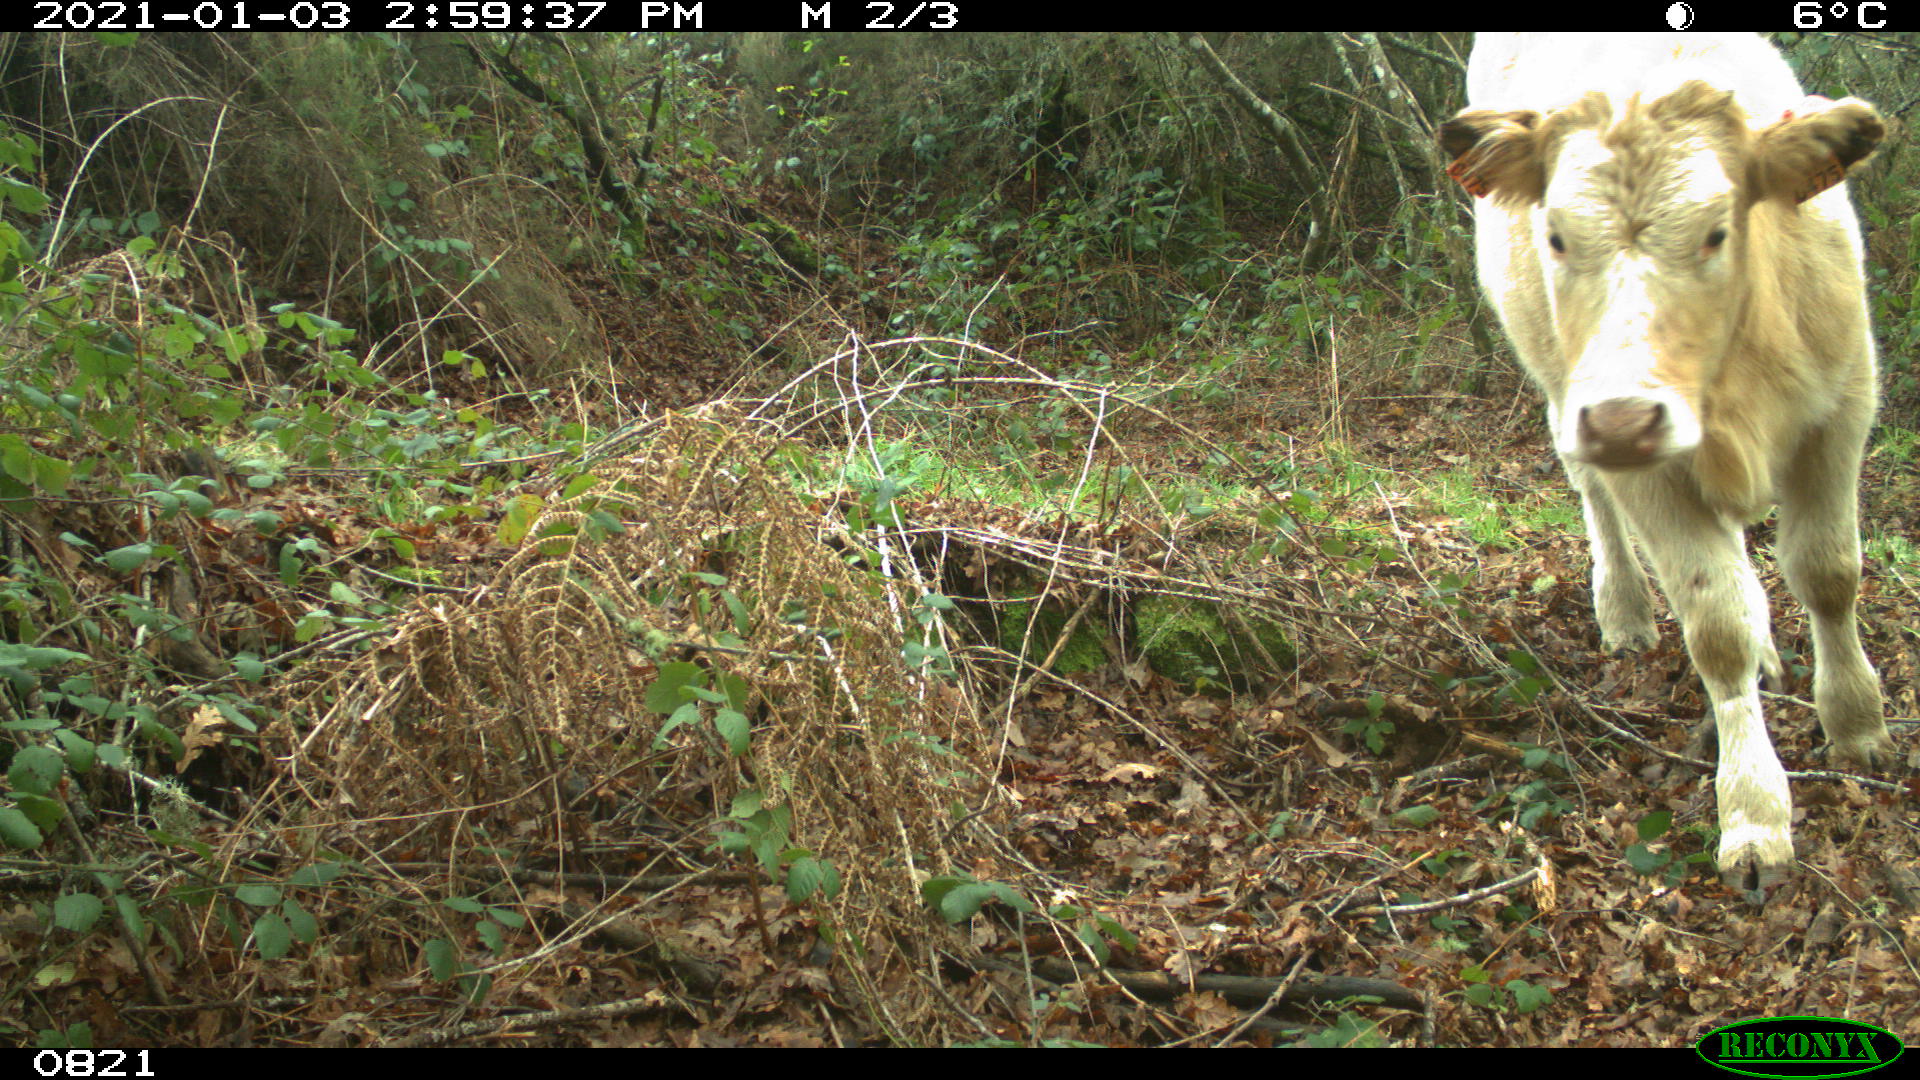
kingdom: Animalia
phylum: Chordata
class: Mammalia
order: Artiodactyla
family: Bovidae
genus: Bos
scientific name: Bos taurus
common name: Domesticated cattle
